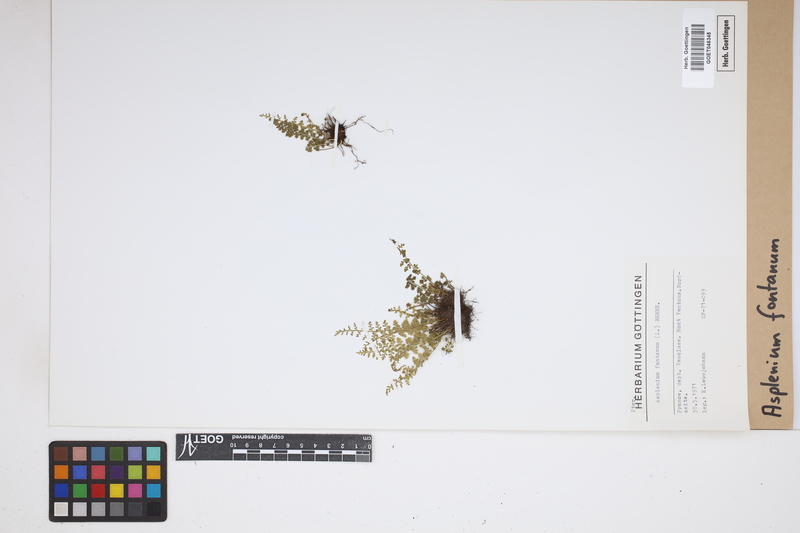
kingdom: Plantae
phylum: Tracheophyta
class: Polypodiopsida
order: Polypodiales
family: Aspleniaceae
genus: Asplenium
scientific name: Asplenium fontanum
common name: Fountain spleenwort
